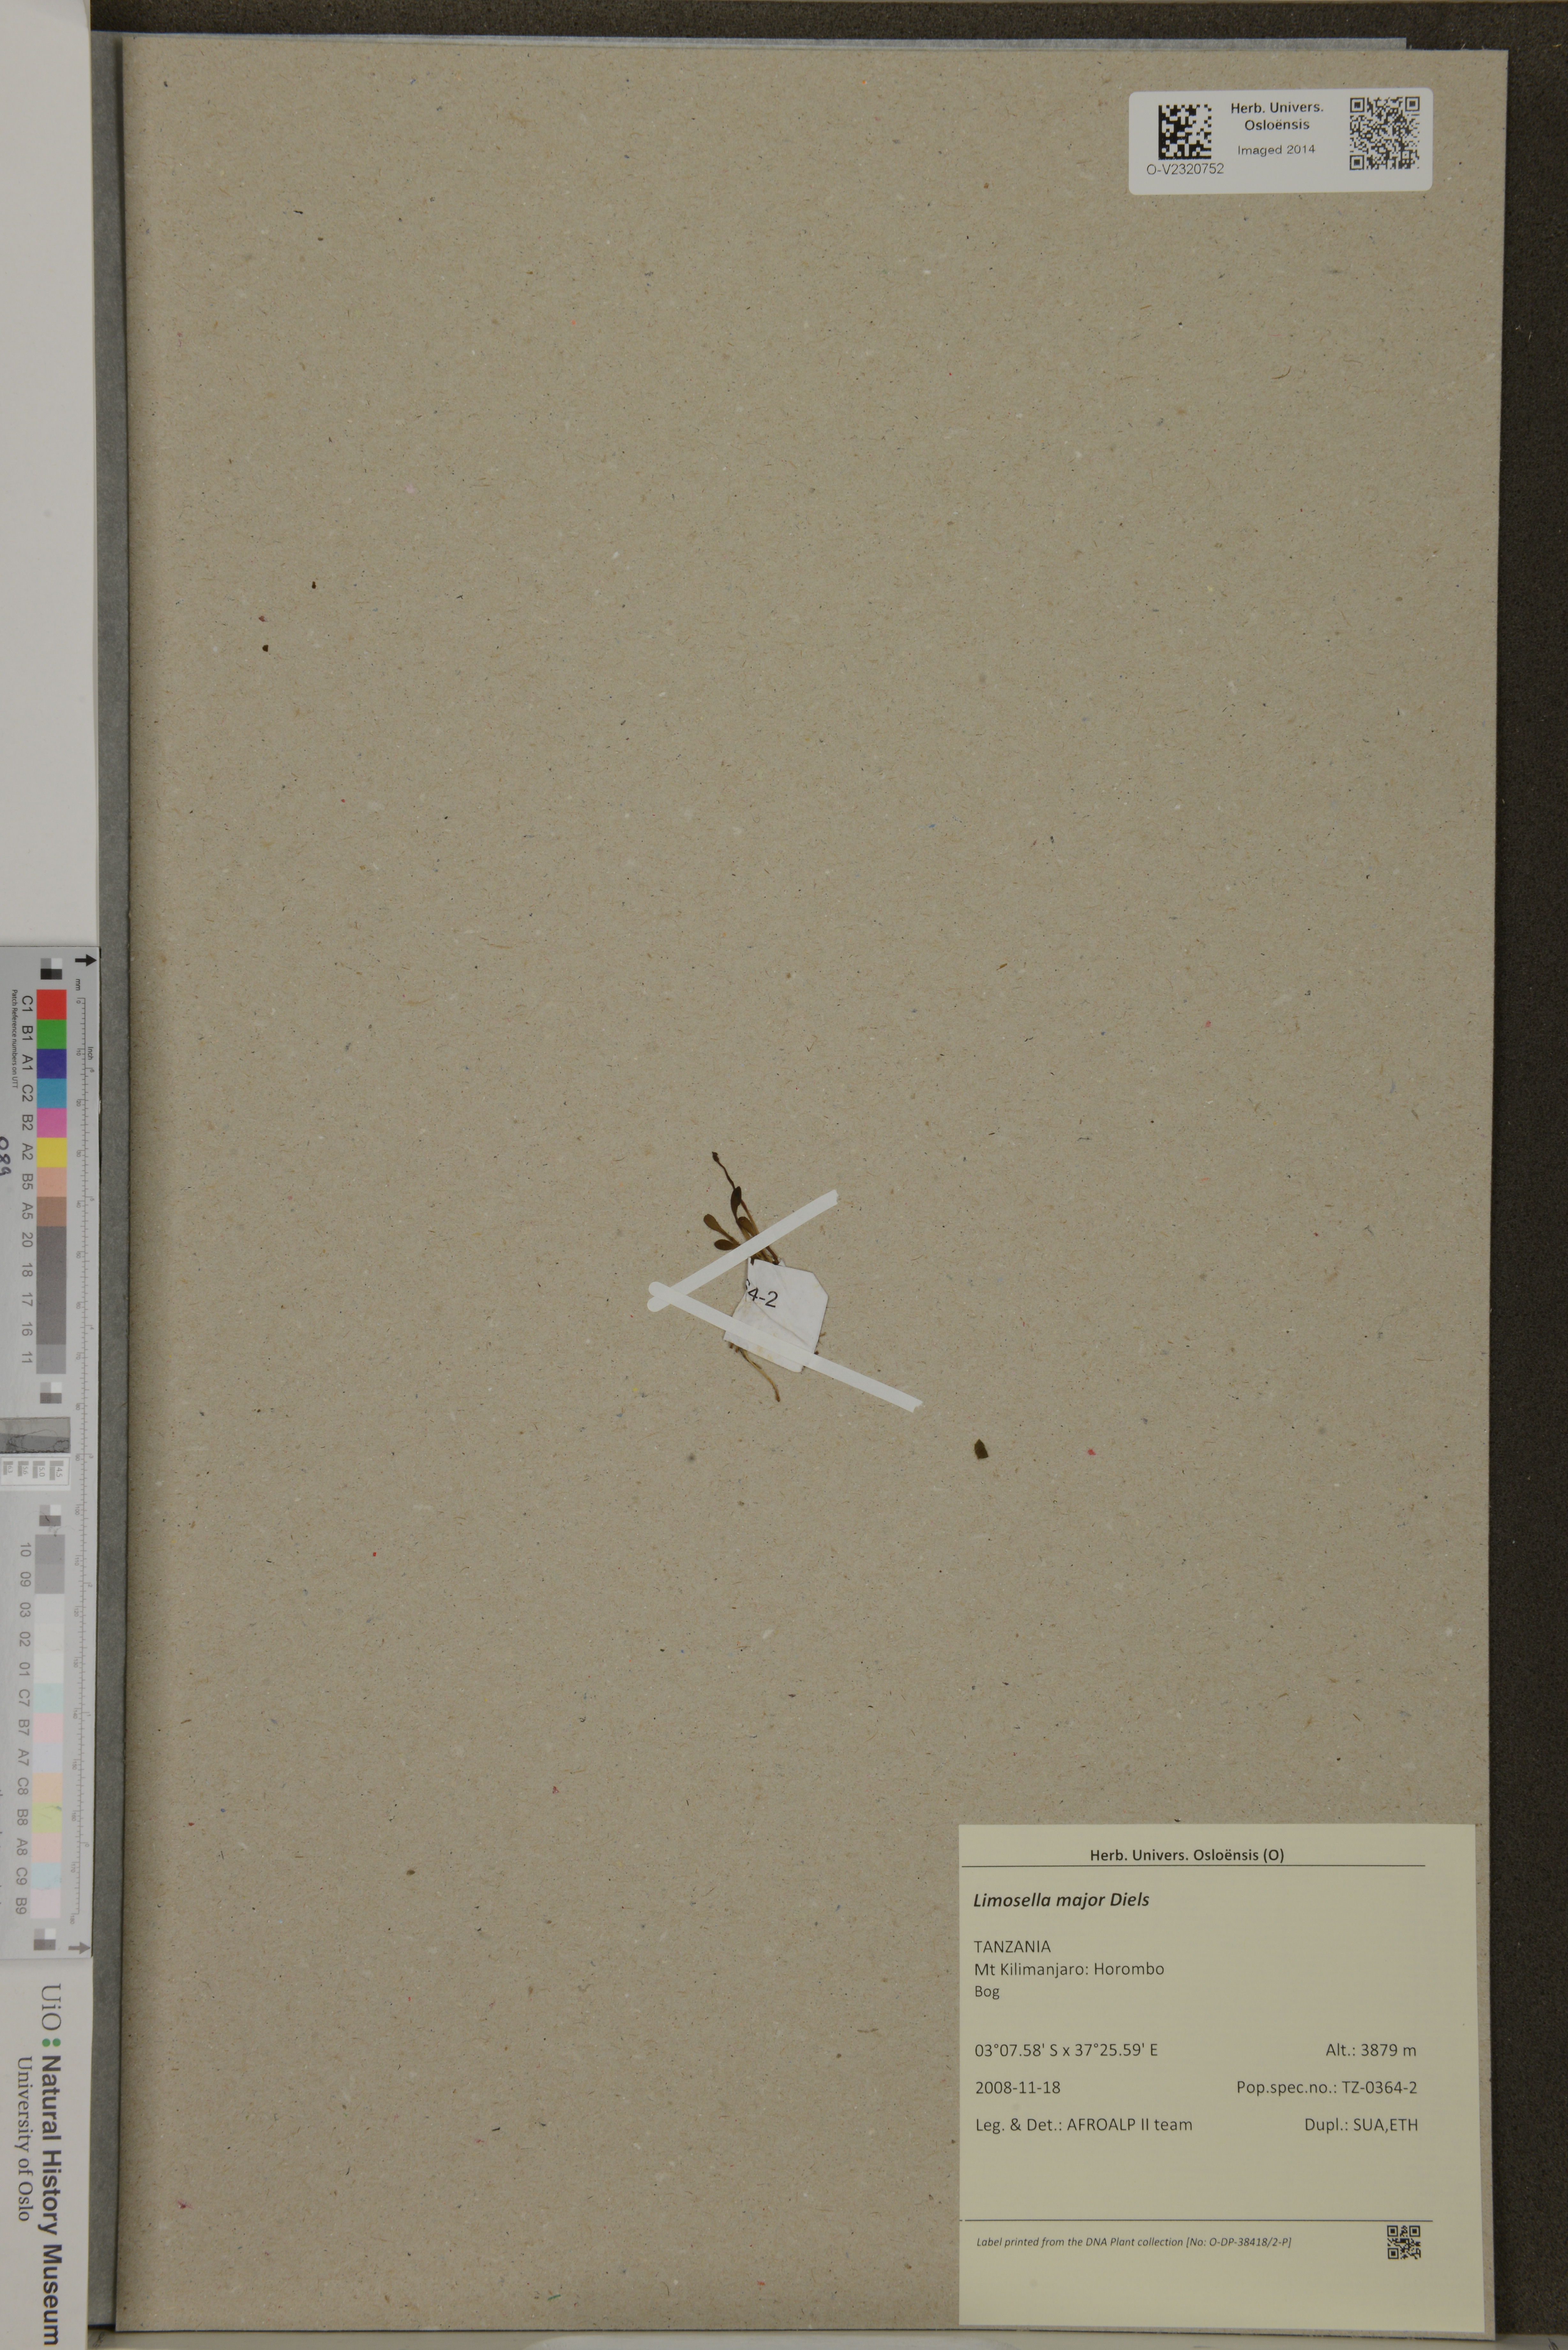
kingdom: Plantae
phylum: Tracheophyta
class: Magnoliopsida
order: Lamiales
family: Scrophulariaceae
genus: Limosella
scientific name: Limosella major
